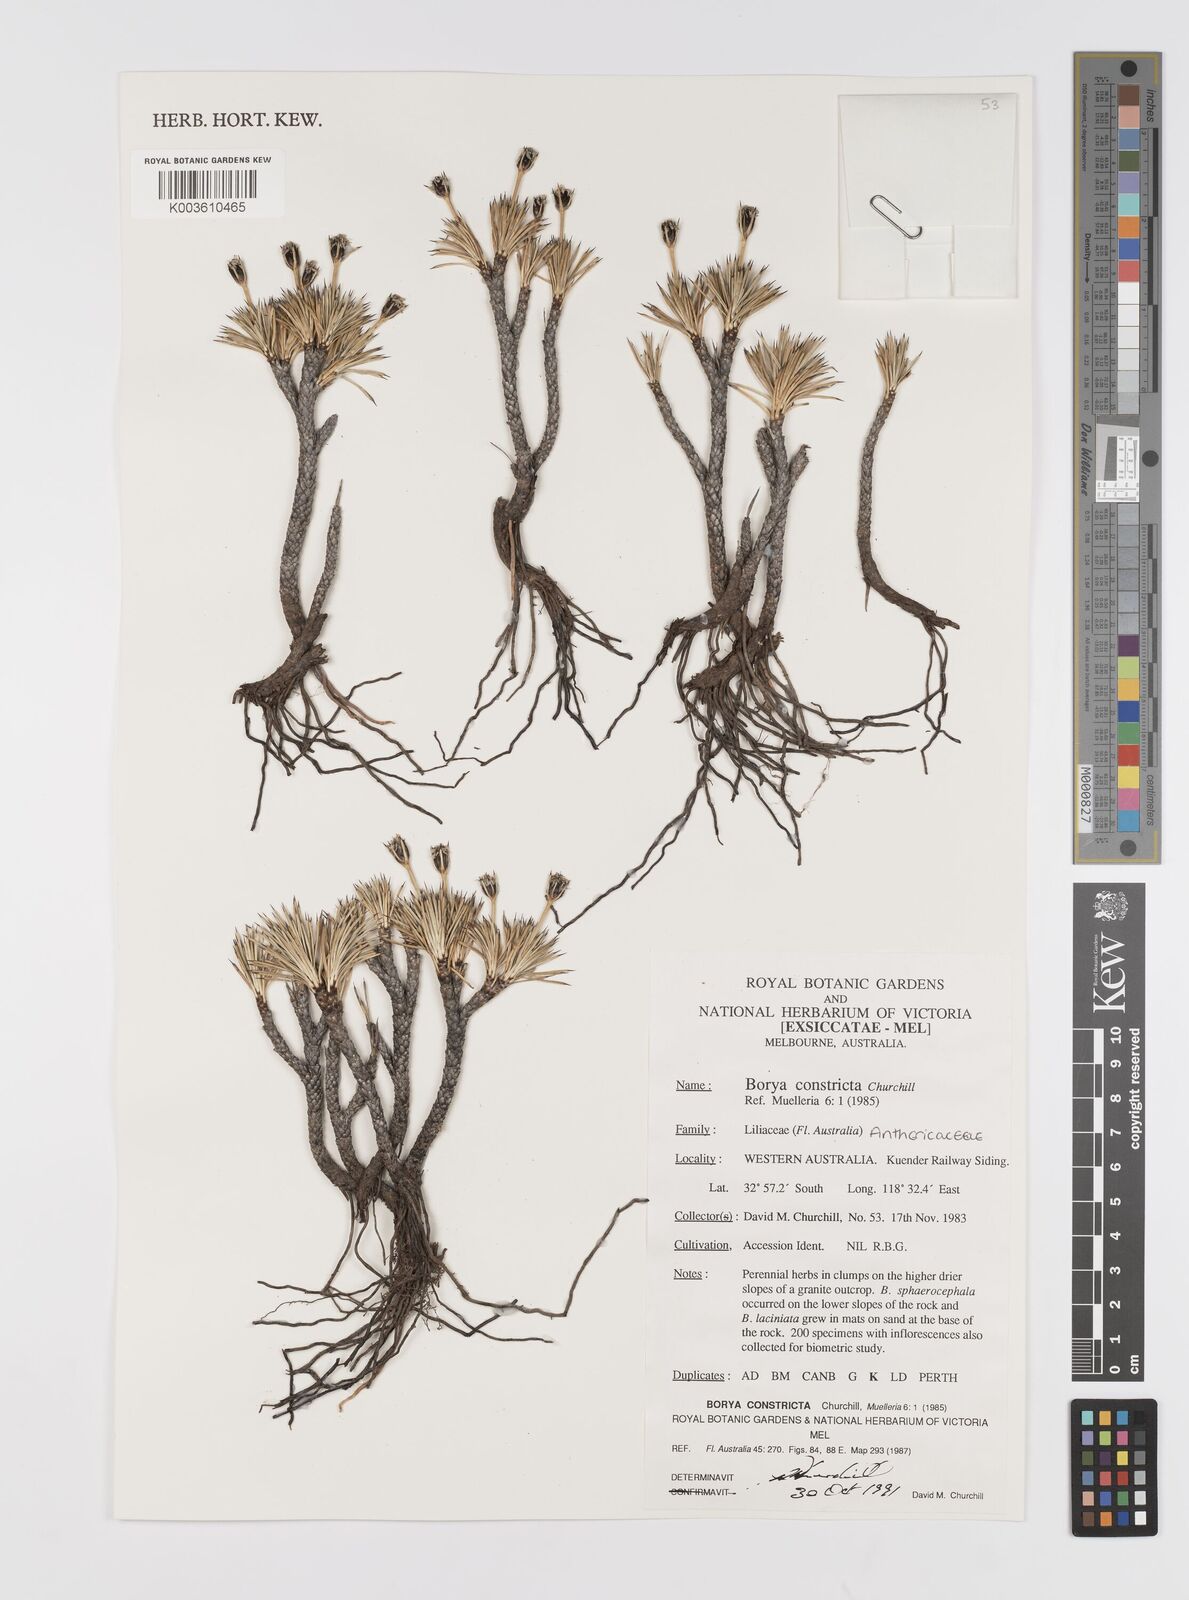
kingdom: Plantae
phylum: Tracheophyta
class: Liliopsida
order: Asparagales
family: Boryaceae
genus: Borya
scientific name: Borya constricta
